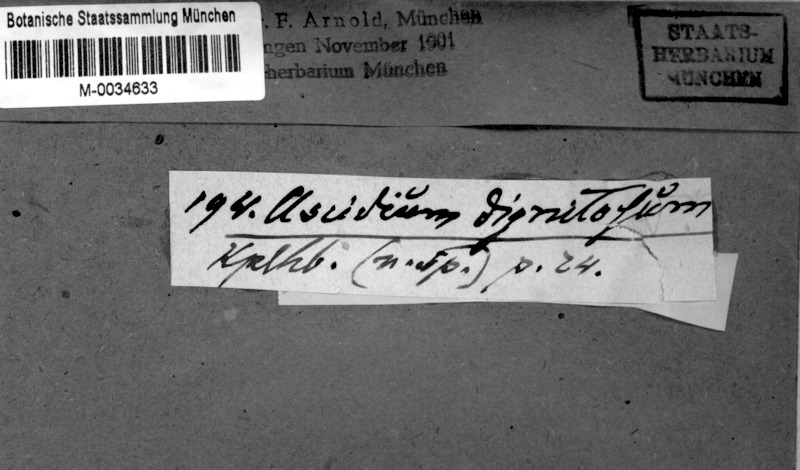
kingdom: Fungi
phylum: Ascomycota
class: Lecanoromycetes
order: Ostropales
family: Graphidaceae
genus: Thelotrema
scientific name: Thelotrema dignitosum
